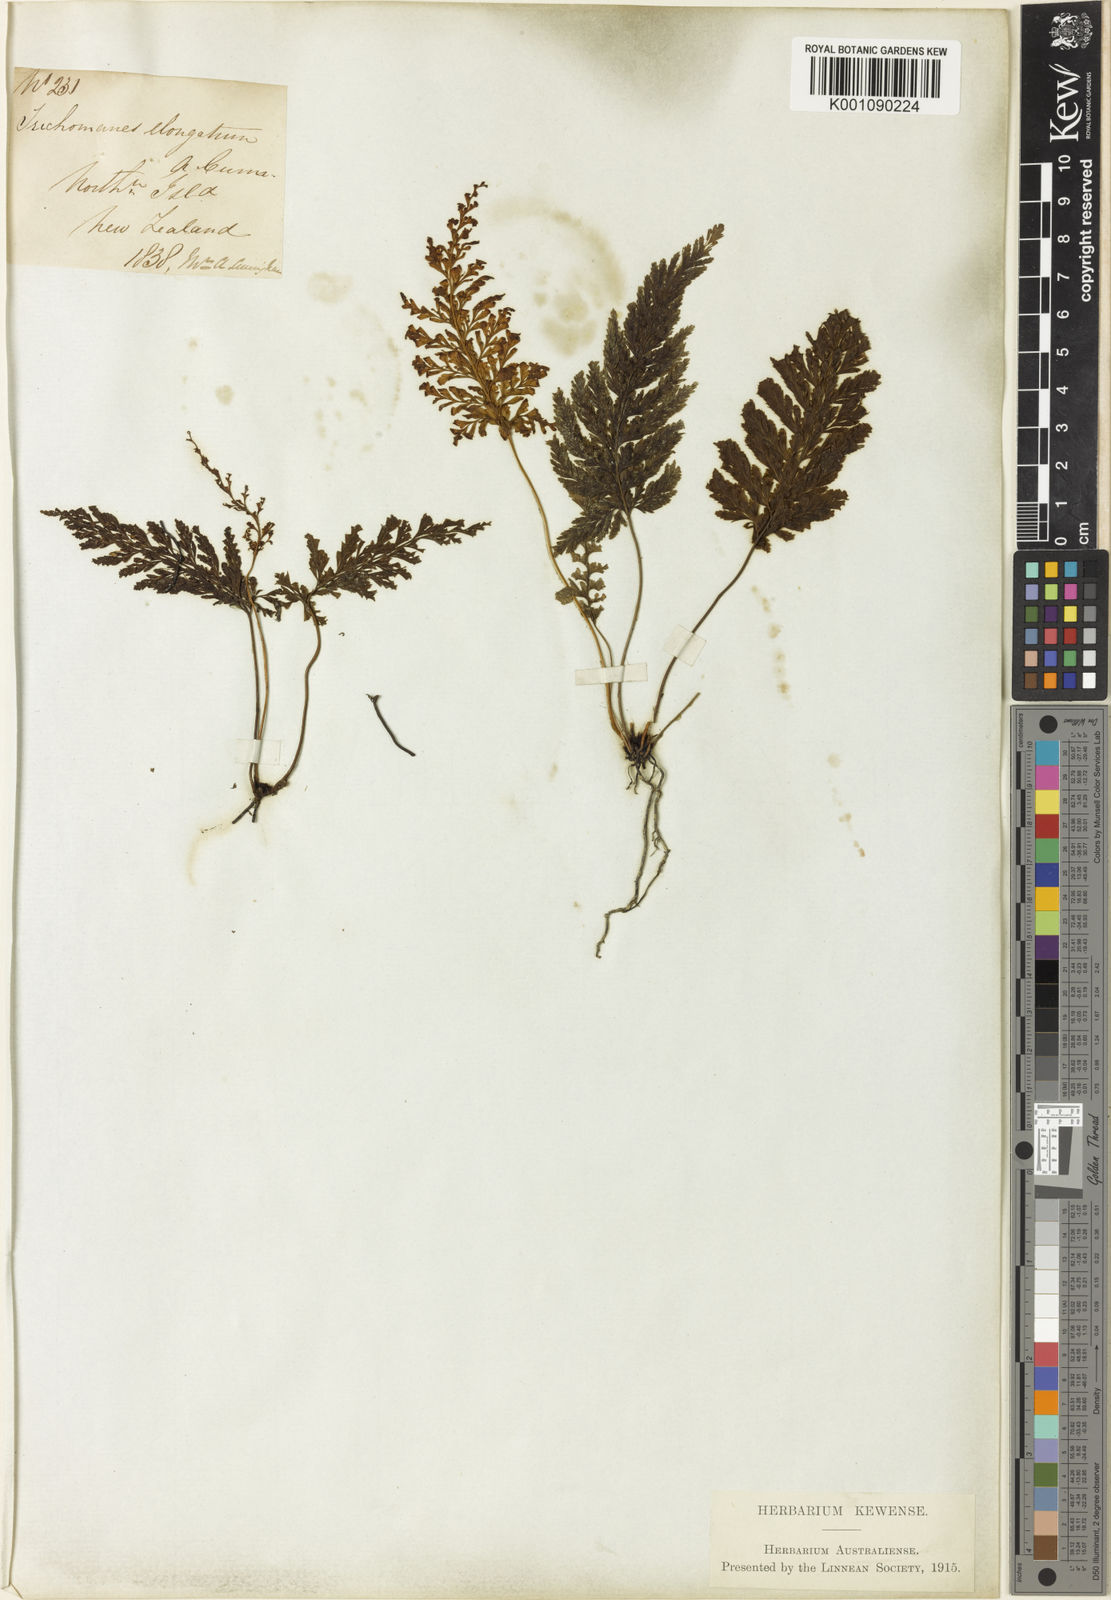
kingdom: Plantae
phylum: Tracheophyta
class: Polypodiopsida
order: Hymenophyllales
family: Hymenophyllaceae
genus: Abrodictyum
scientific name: Abrodictyum elongatum
